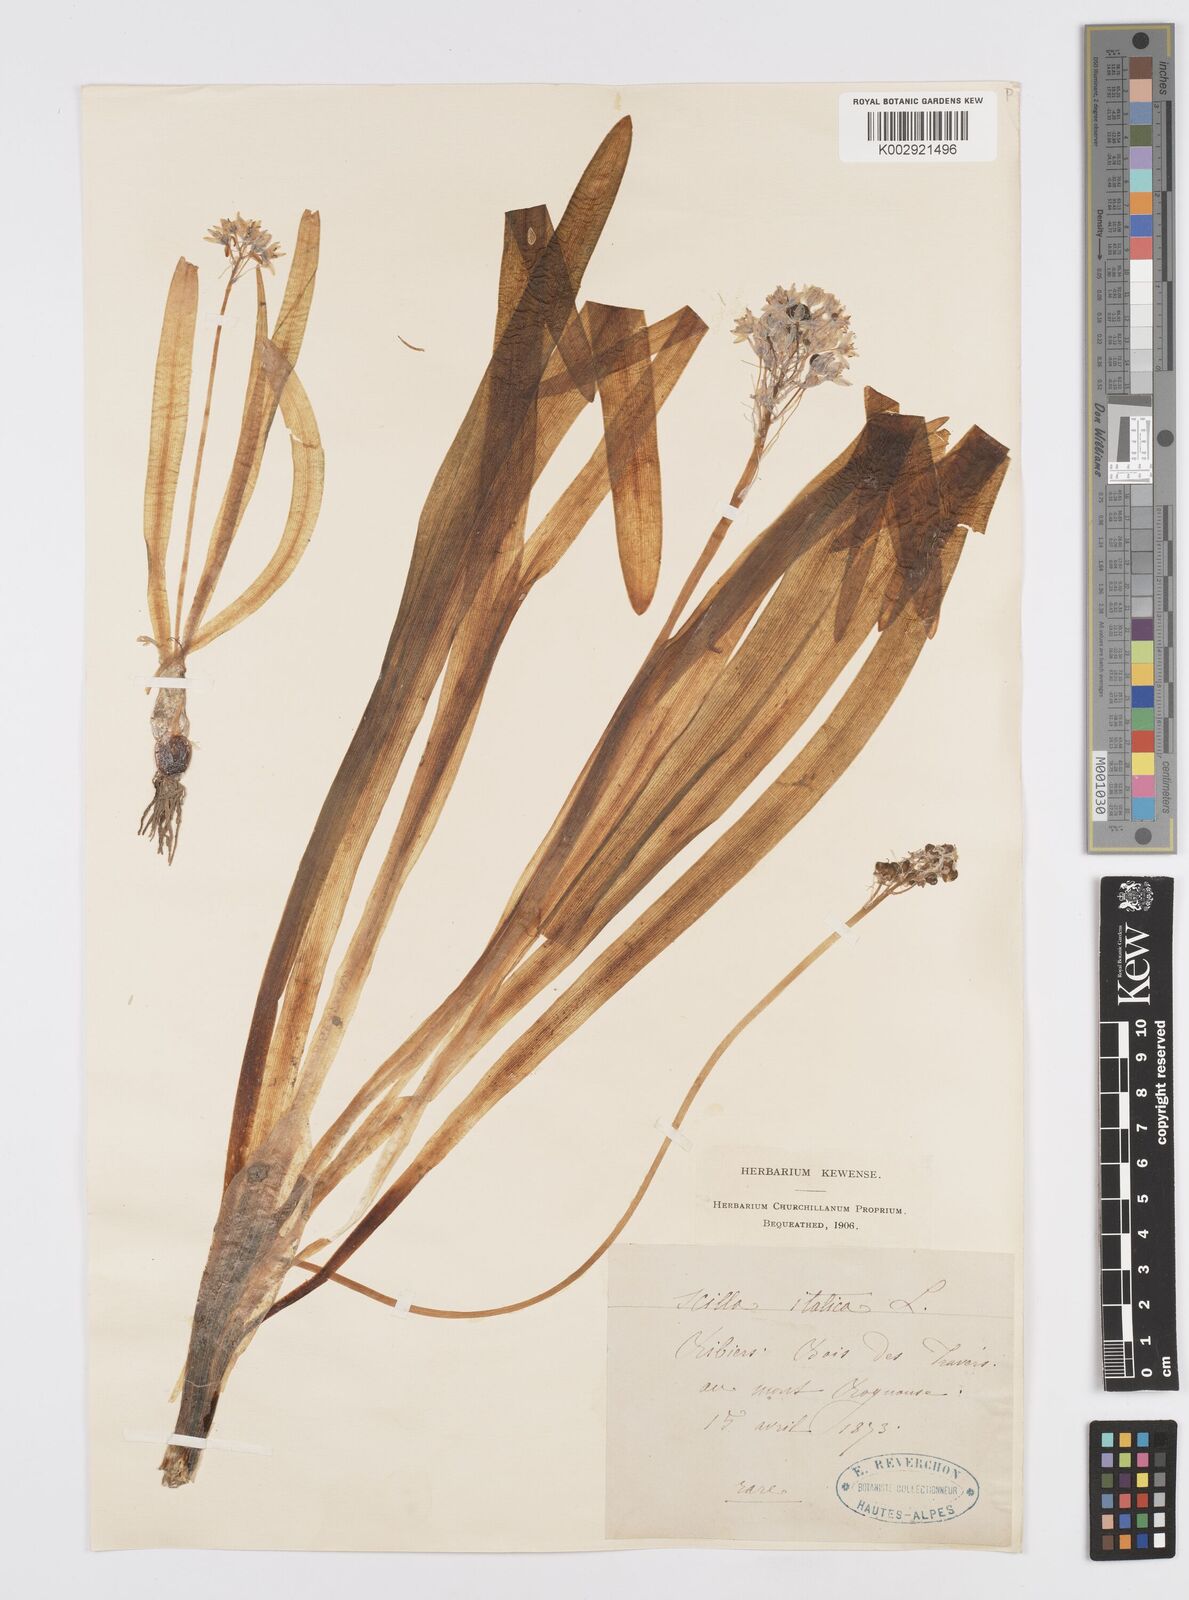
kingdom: Plantae
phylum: Tracheophyta
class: Liliopsida
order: Asparagales
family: Asparagaceae
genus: Hyacinthoides
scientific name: Hyacinthoides italica
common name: Italian bluebell
